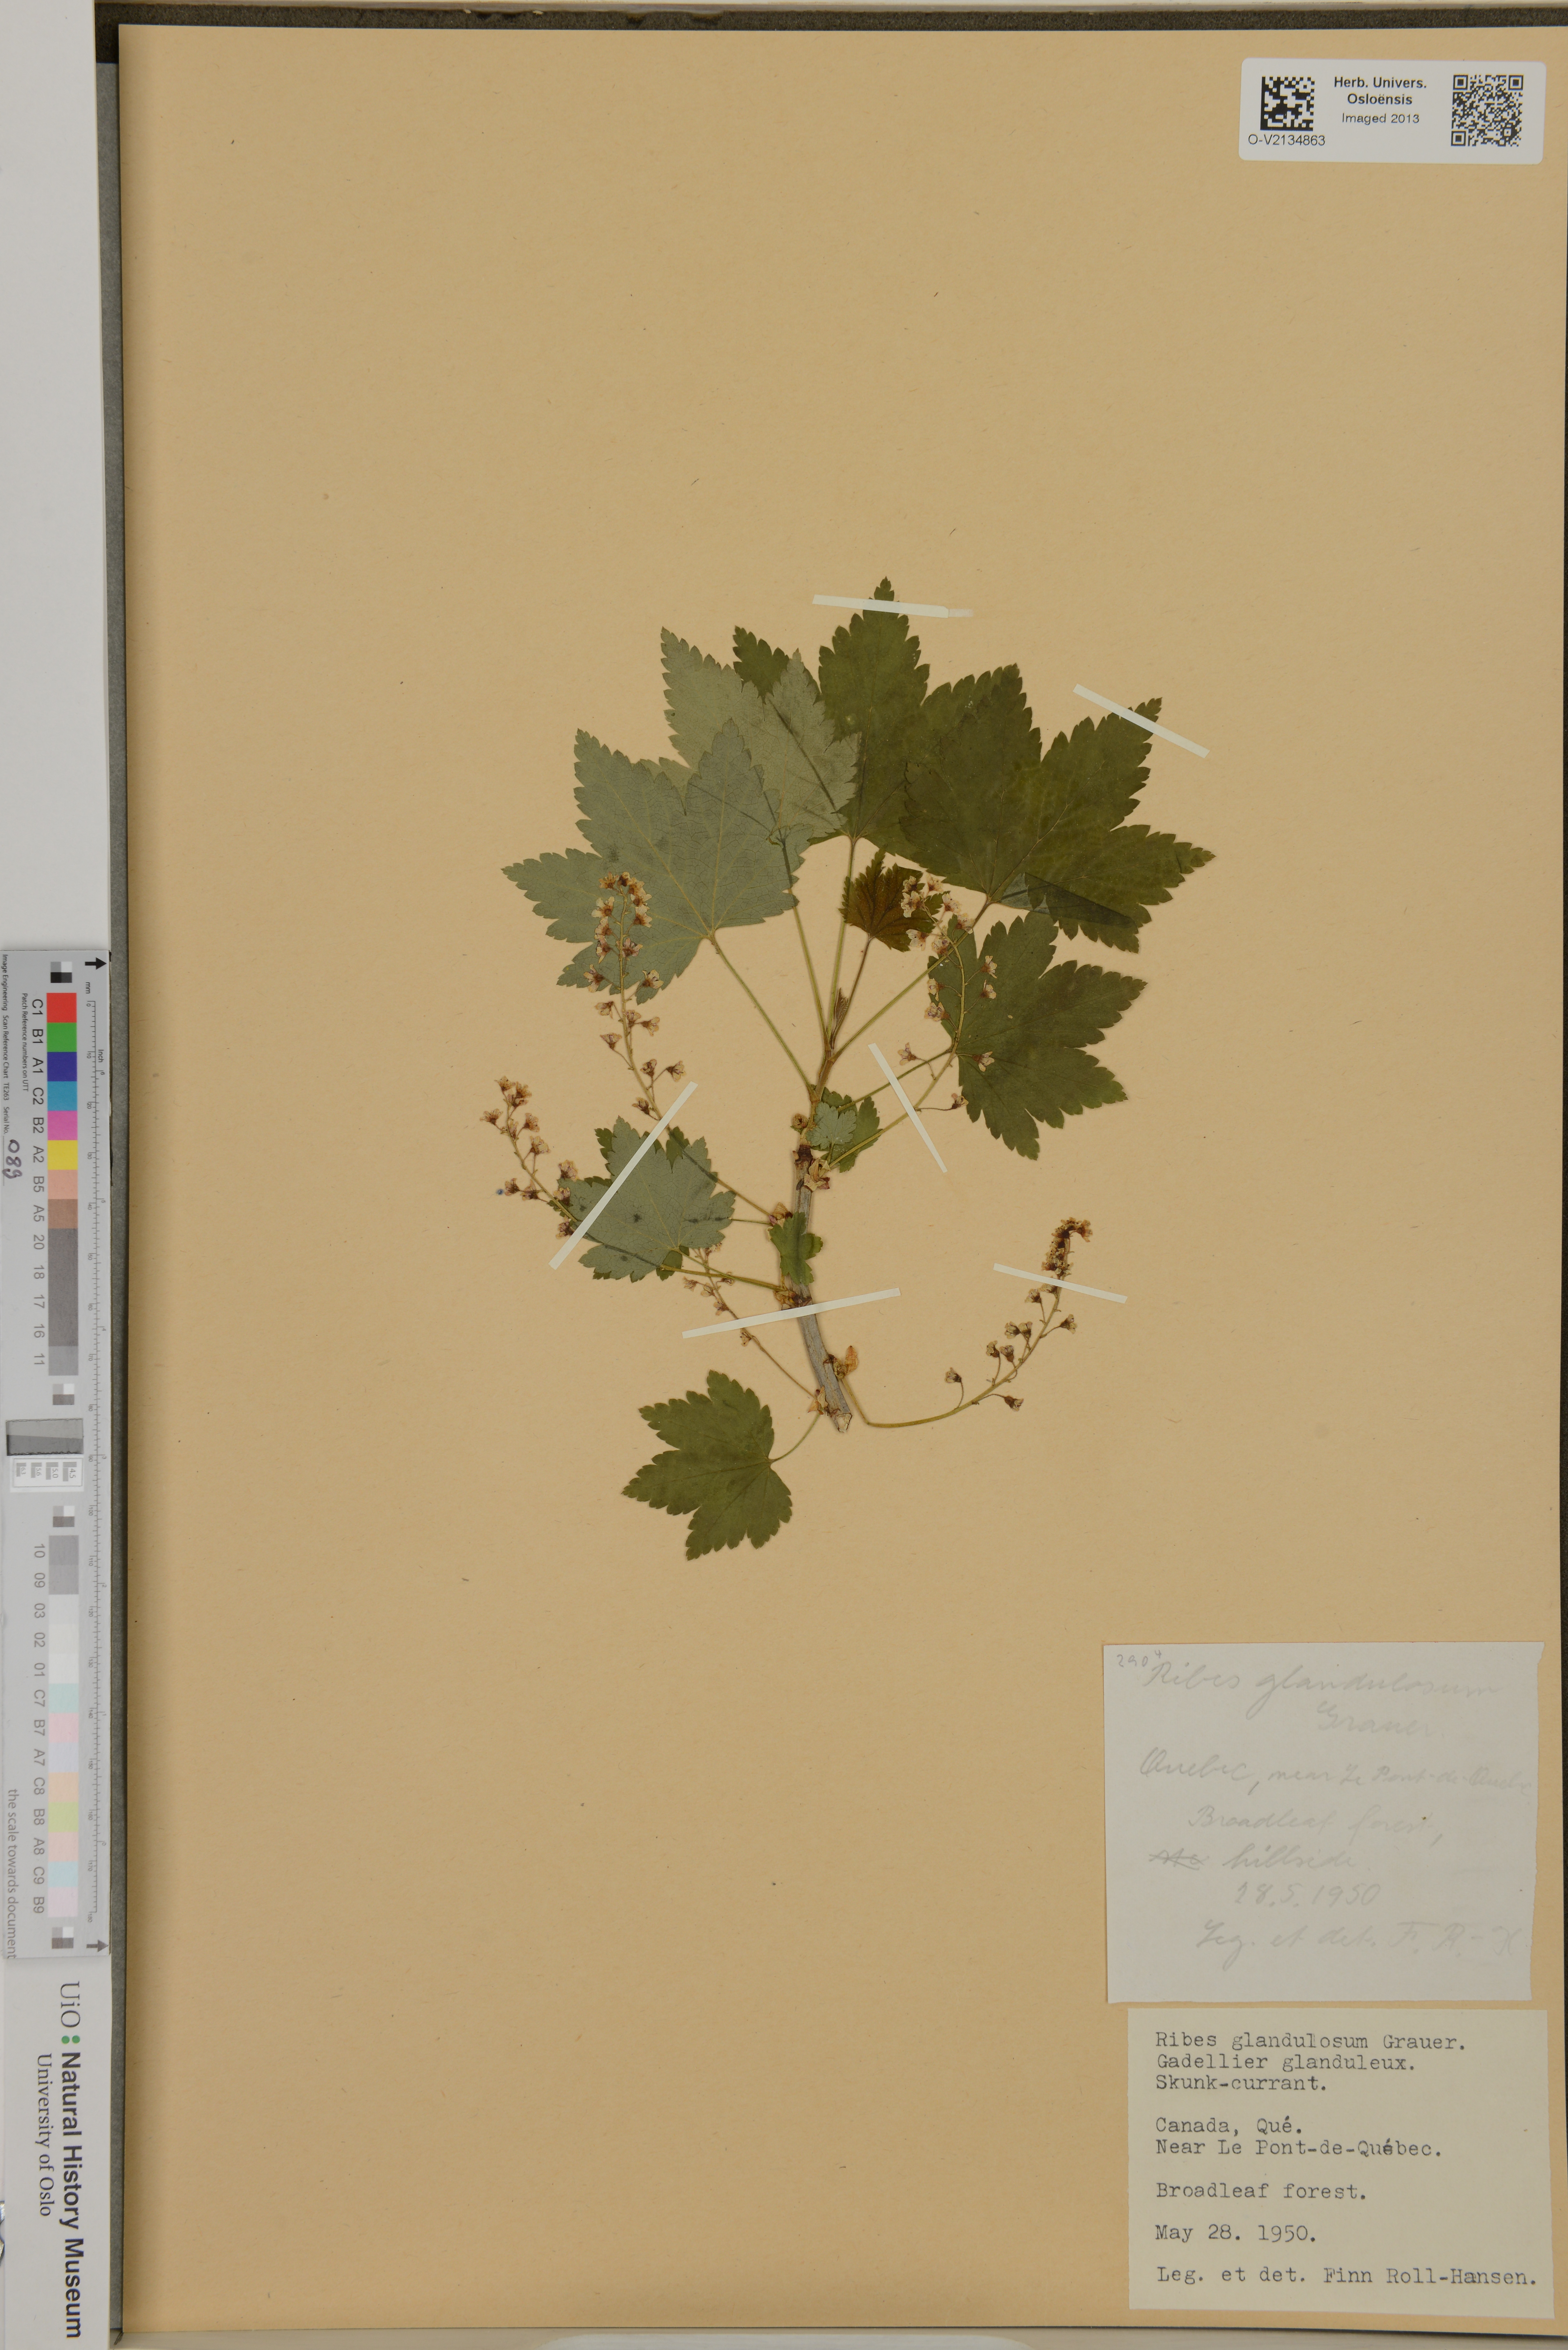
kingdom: Plantae
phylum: Tracheophyta
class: Magnoliopsida
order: Saxifragales
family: Grossulariaceae
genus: Ribes
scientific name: Ribes glandulosum
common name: Skunk currant
